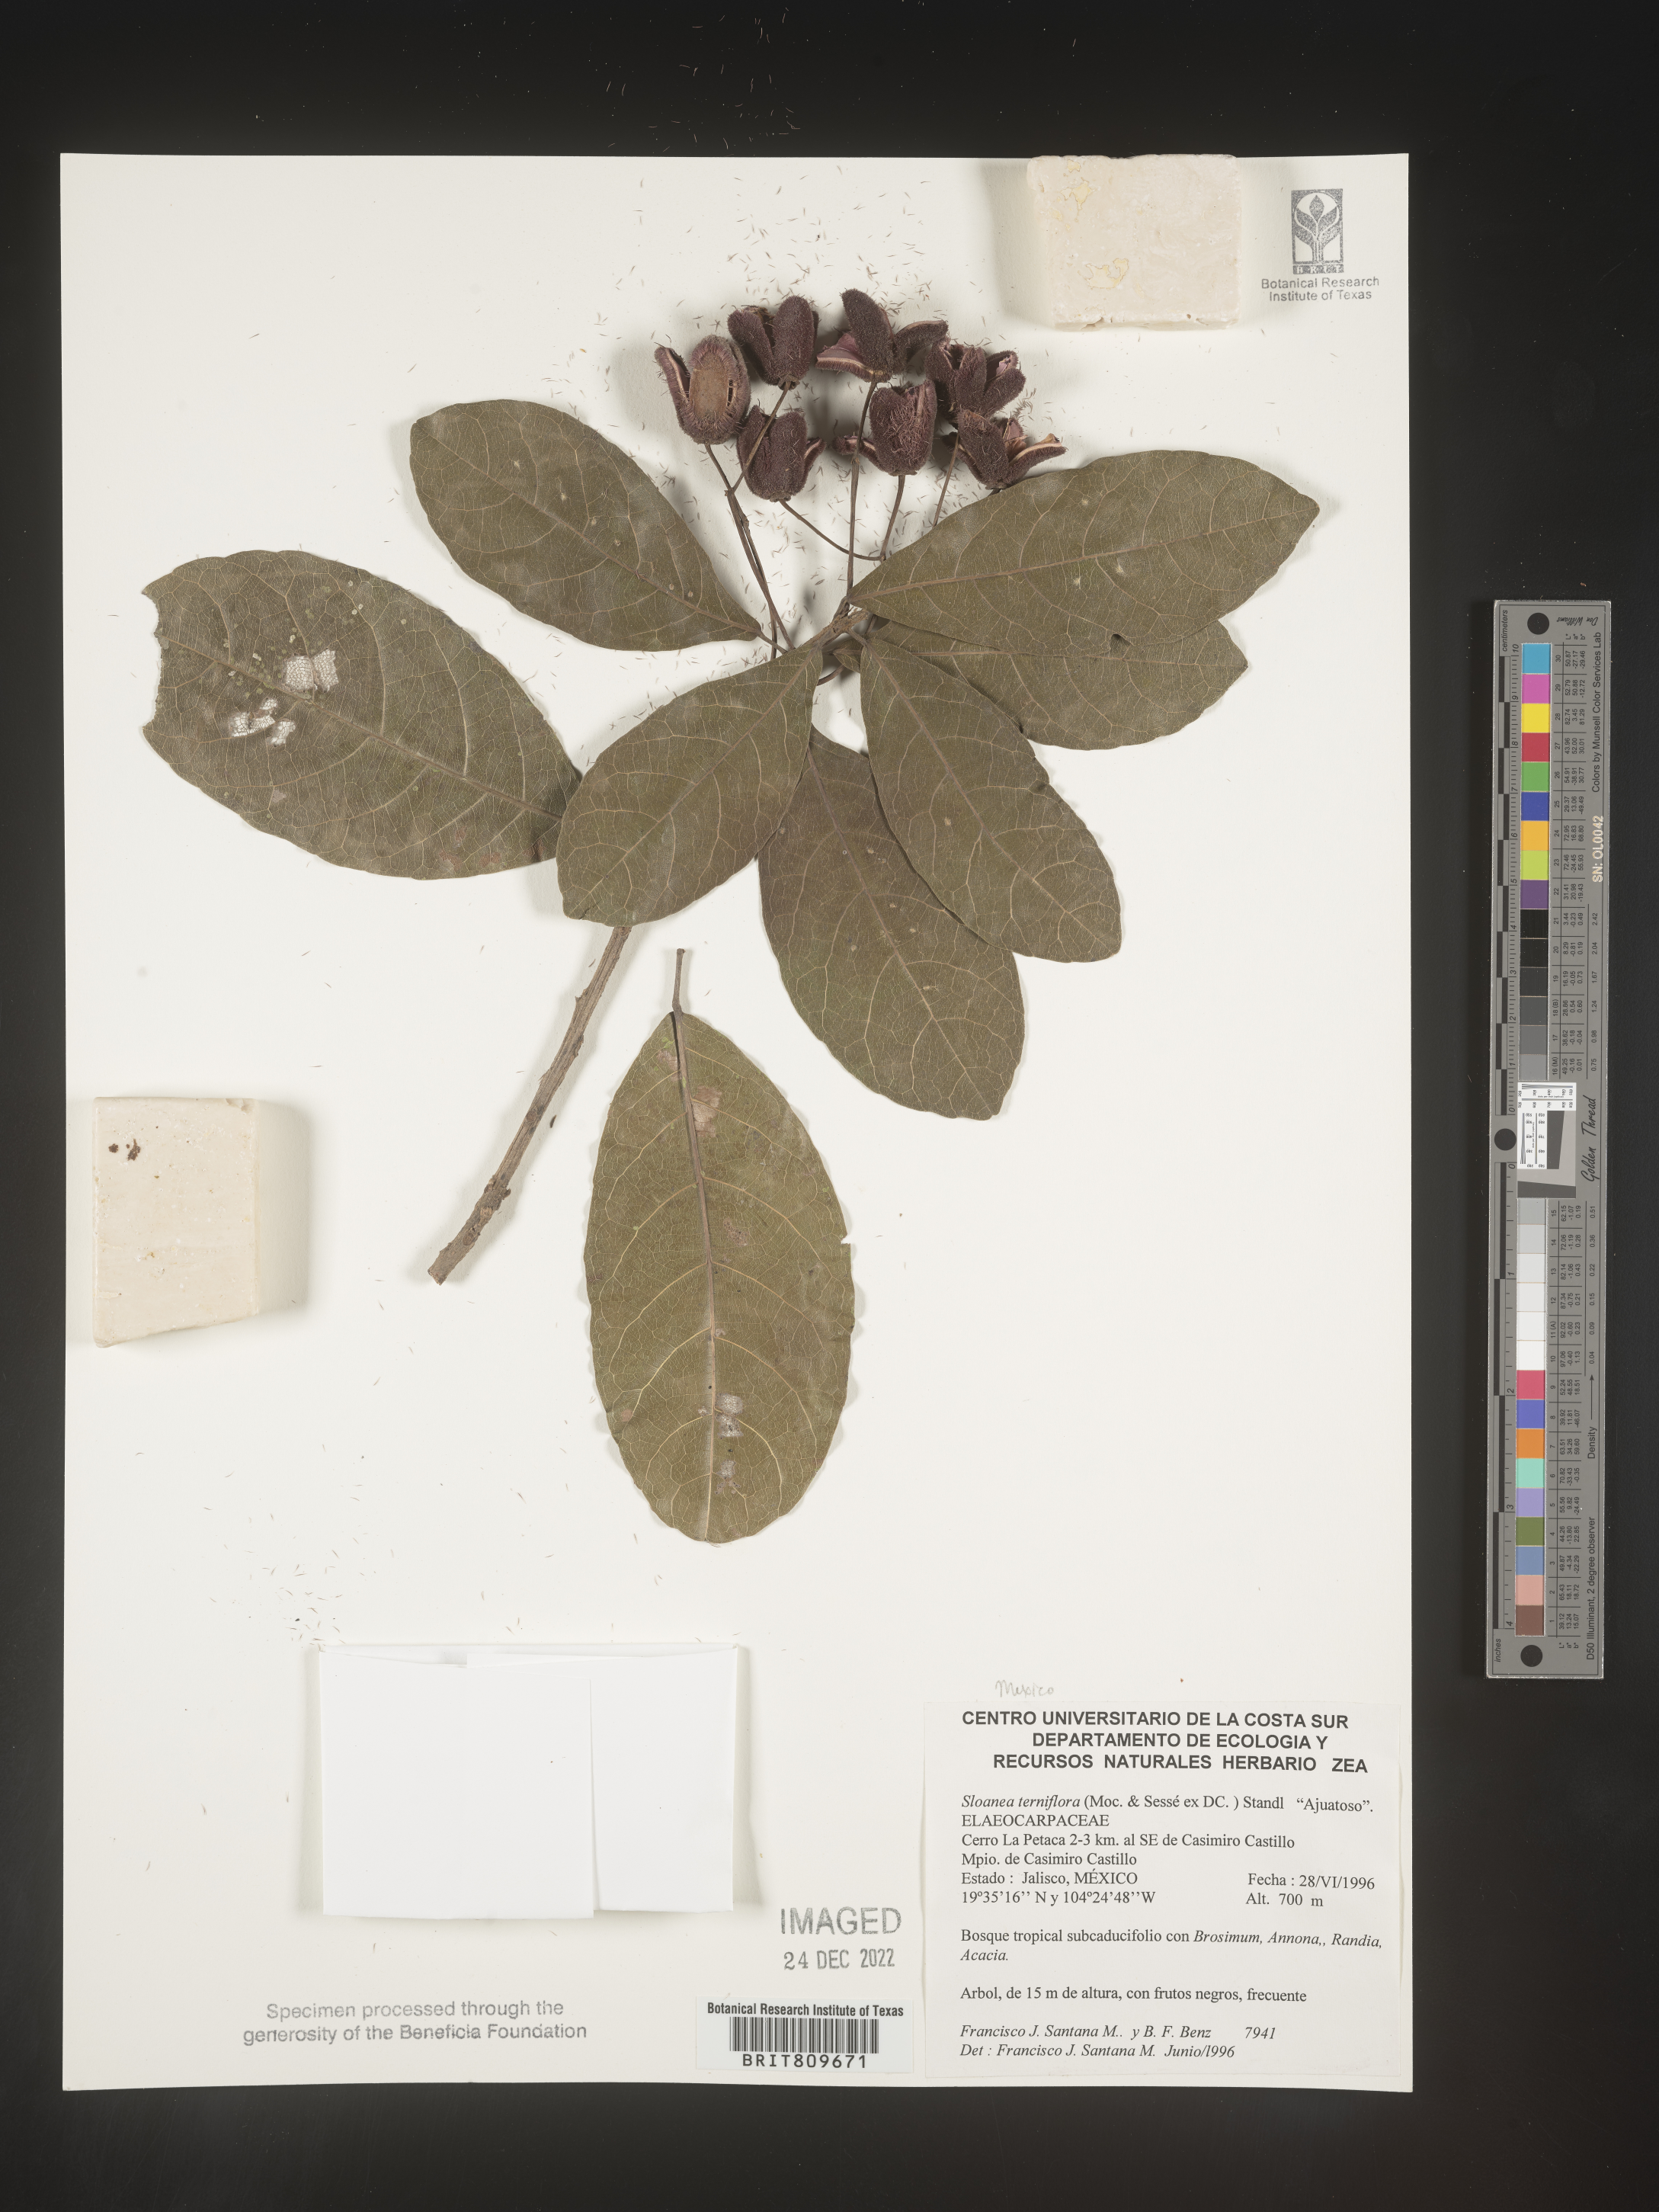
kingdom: Plantae
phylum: Tracheophyta
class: Magnoliopsida
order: Oxalidales
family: Elaeocarpaceae
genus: Sloanea
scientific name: Sloanea
